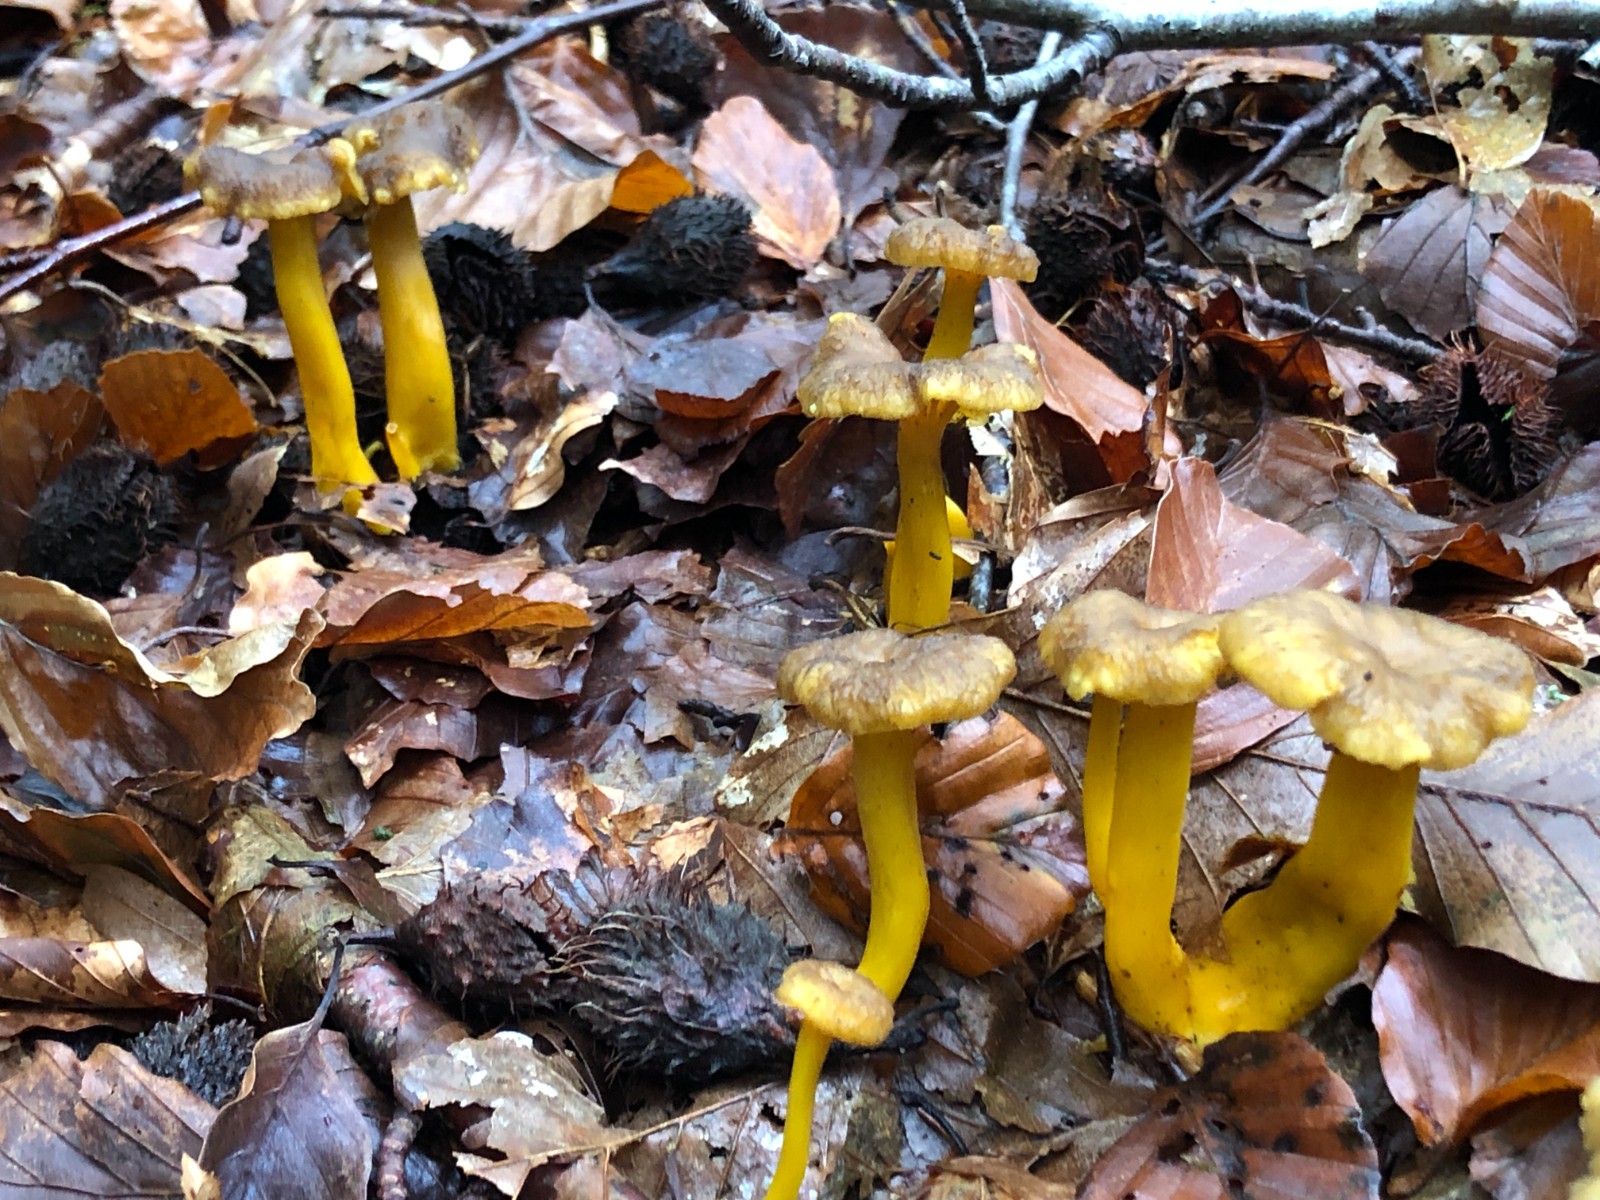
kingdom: Fungi
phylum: Basidiomycota
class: Agaricomycetes
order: Cantharellales
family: Hydnaceae
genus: Craterellus
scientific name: Craterellus tubaeformis
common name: tragt-kantarel
